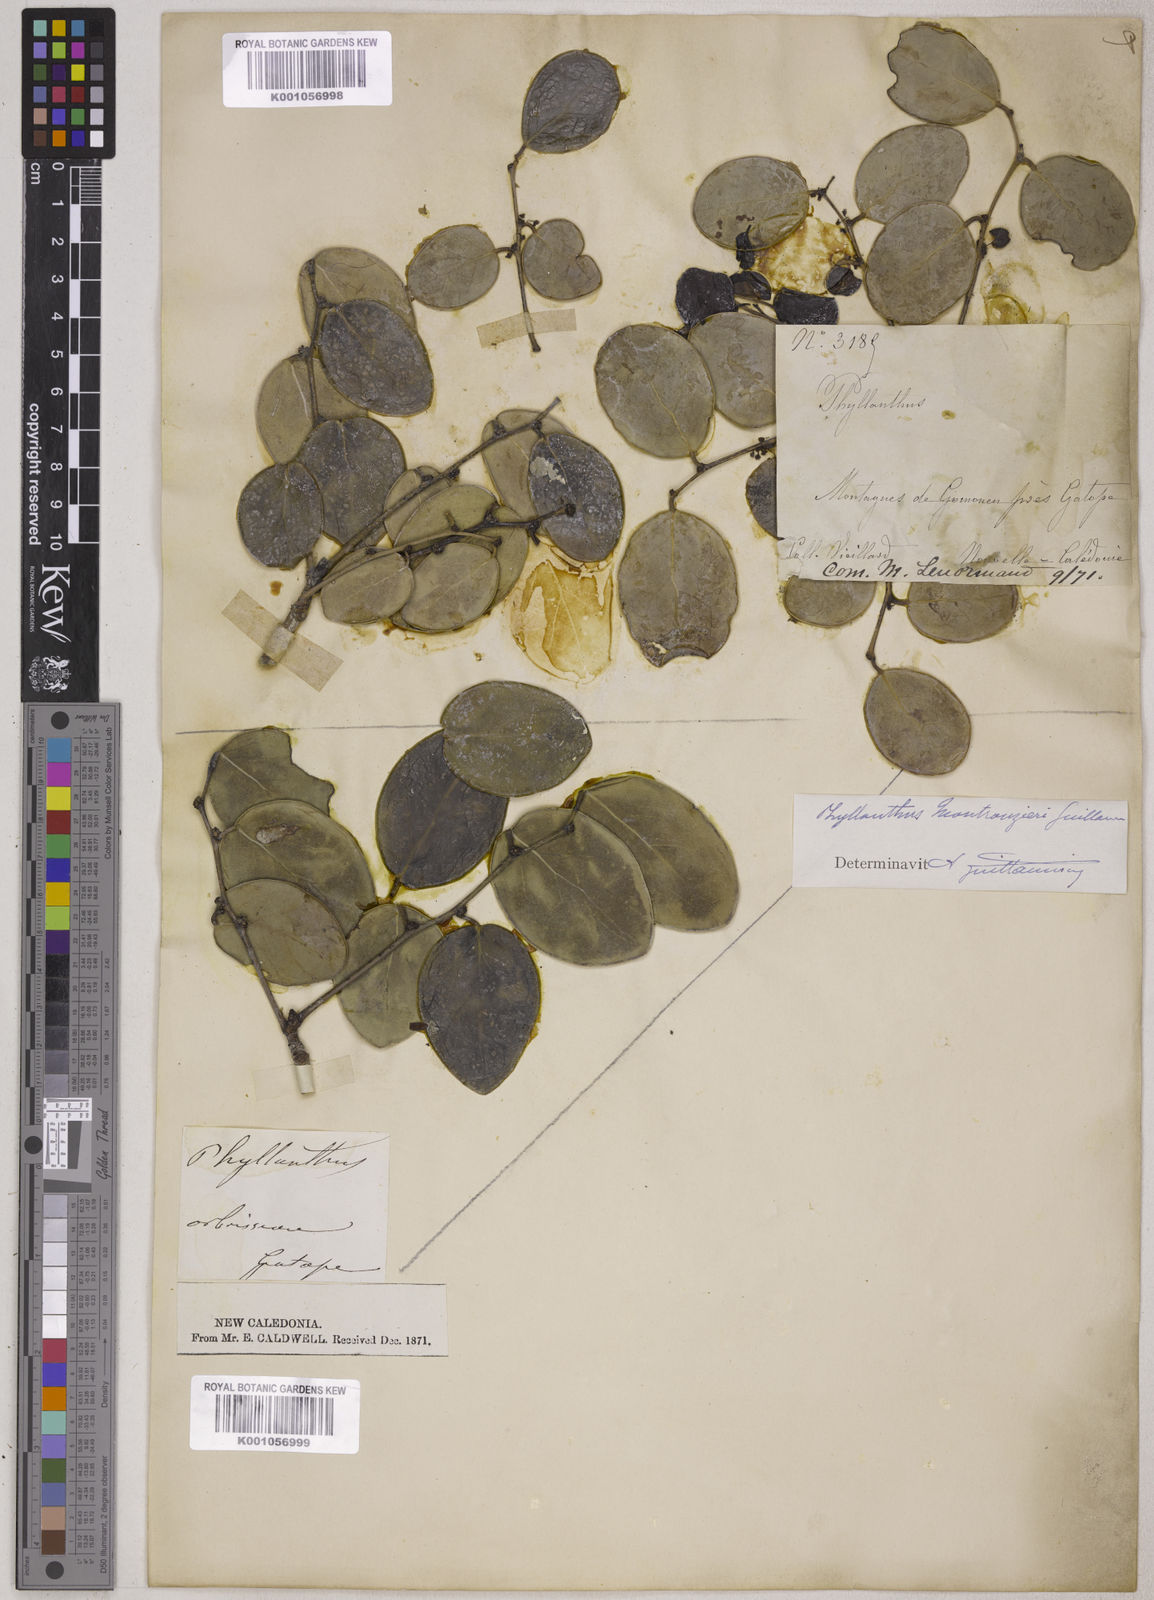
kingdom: Plantae
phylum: Tracheophyta
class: Magnoliopsida
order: Malpighiales
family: Phyllanthaceae
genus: Phyllanthus
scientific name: Phyllanthus montrouzieri
